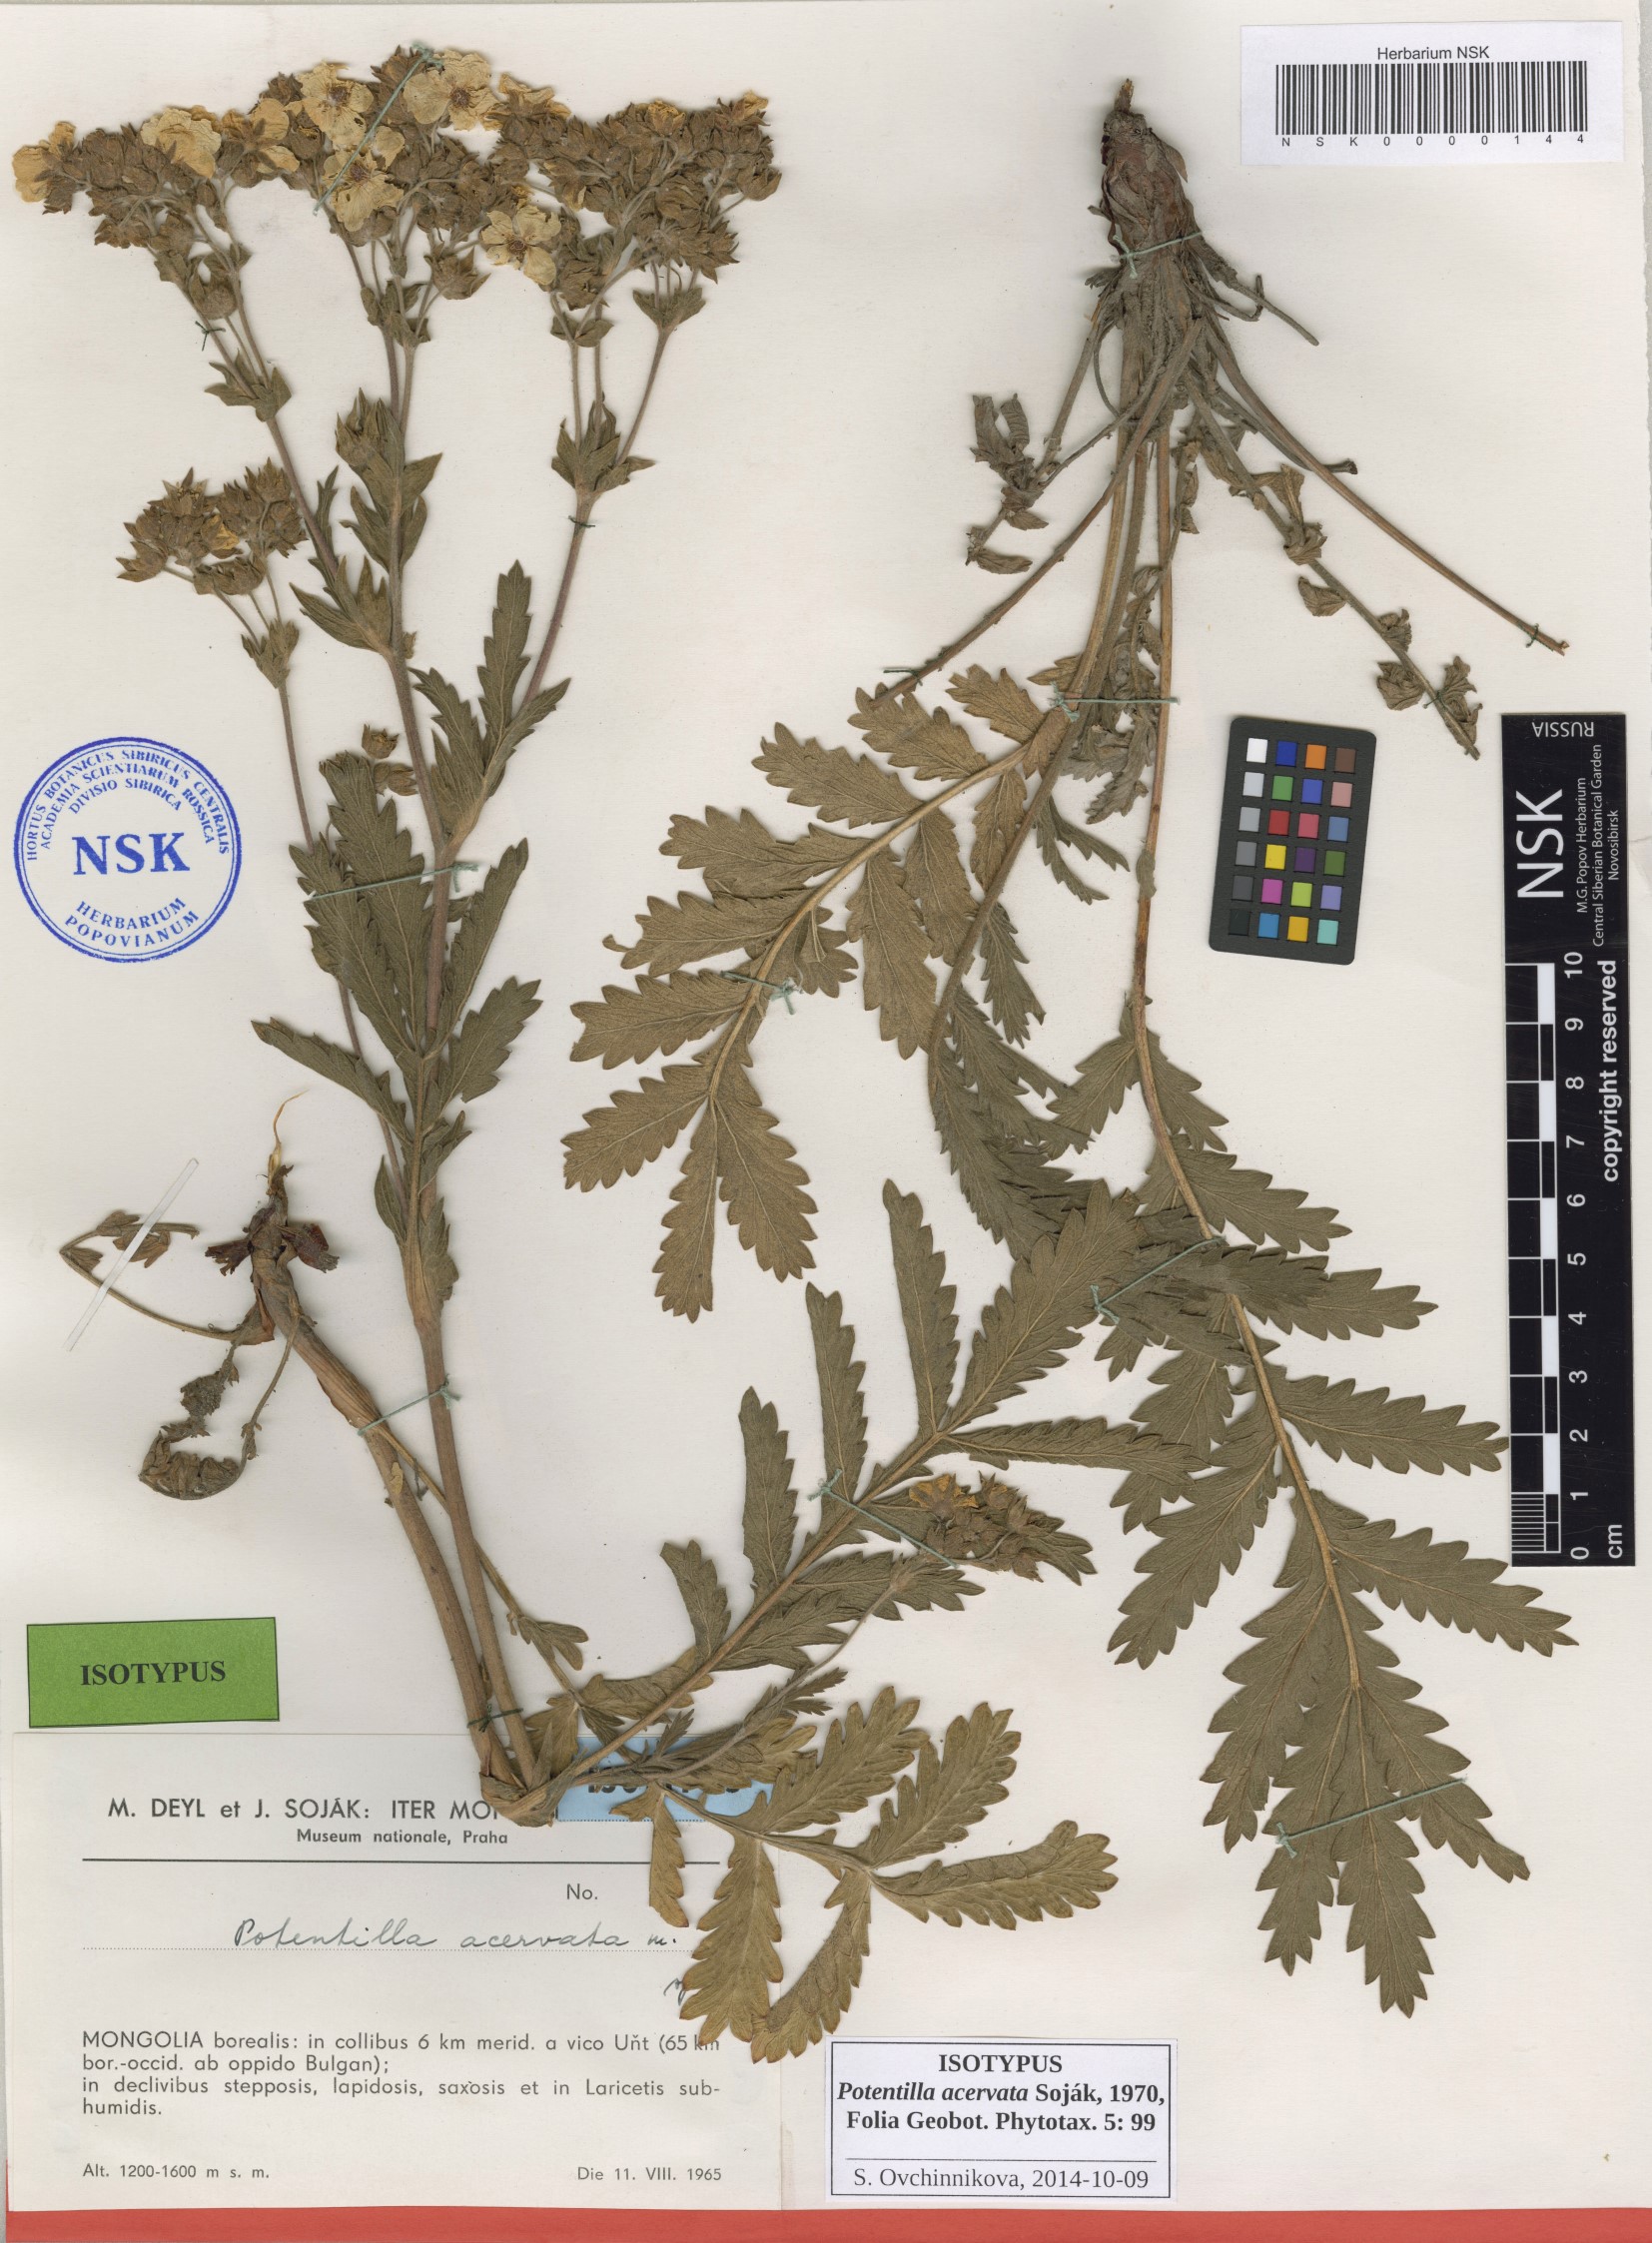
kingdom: Plantae
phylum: Tracheophyta
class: Magnoliopsida
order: Rosales
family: Rosaceae
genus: Potentilla
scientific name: Potentilla tanacetifolia
